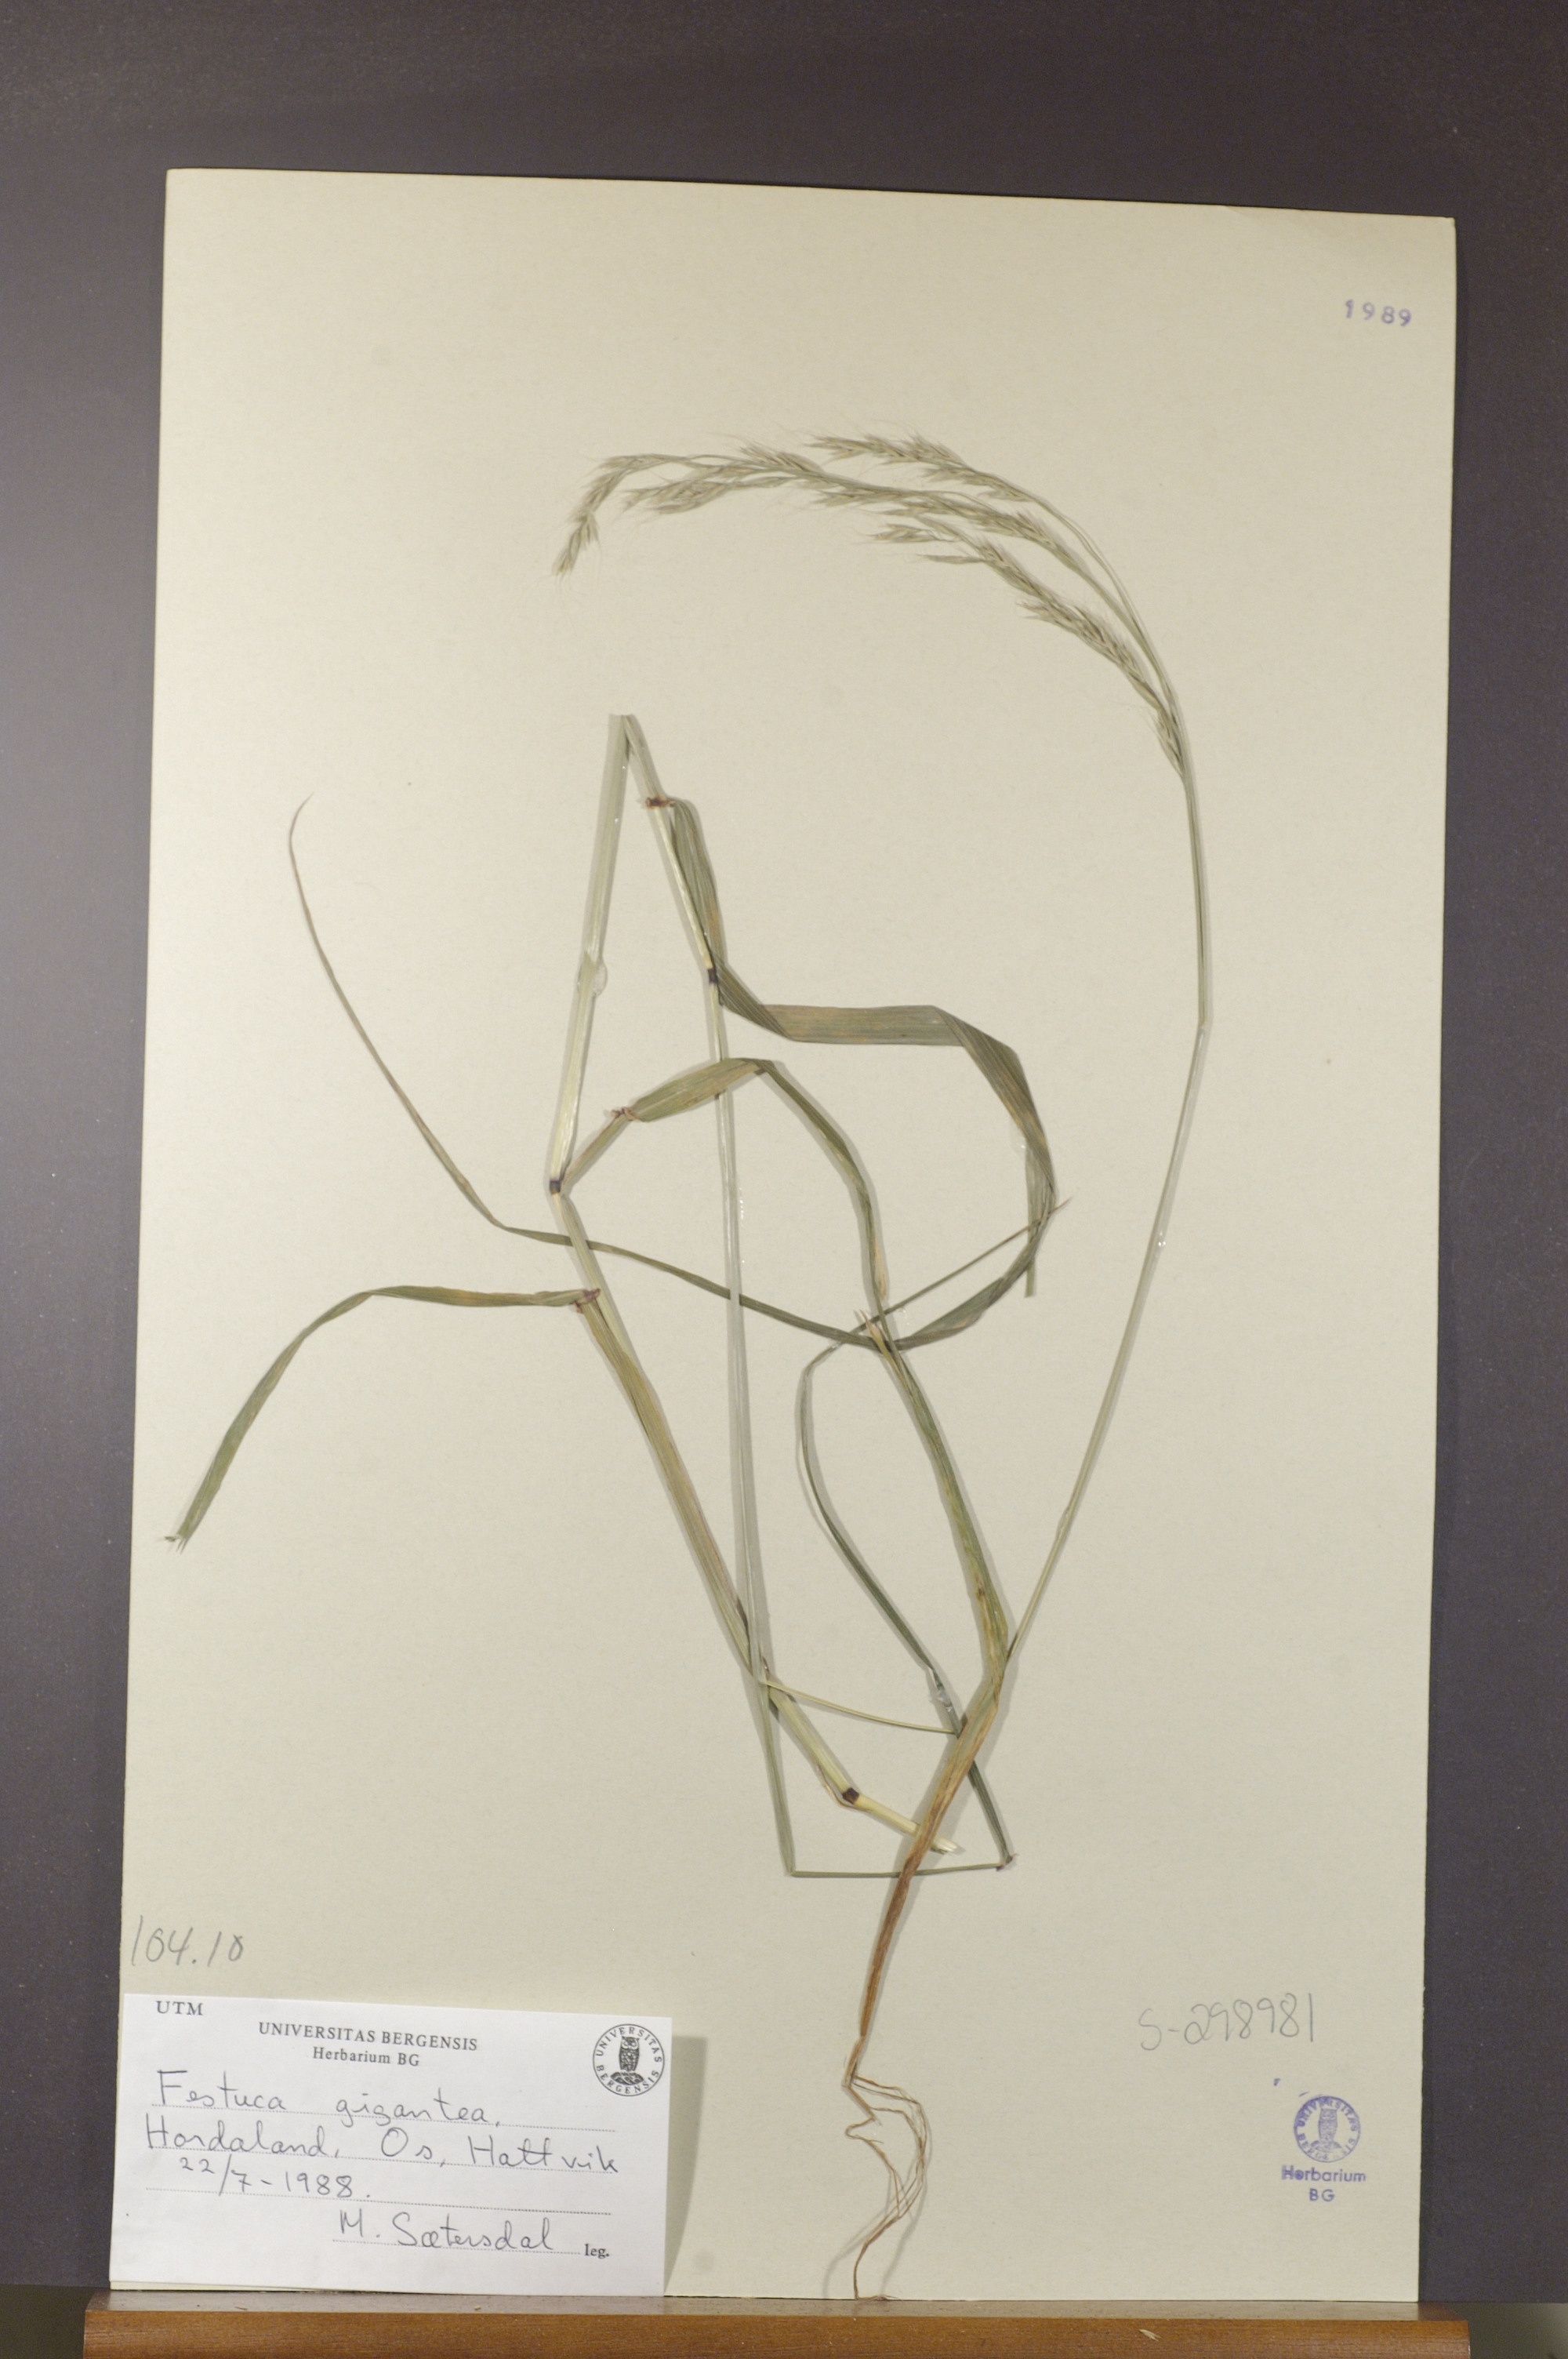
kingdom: Plantae
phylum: Tracheophyta
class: Liliopsida
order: Poales
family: Poaceae
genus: Lolium
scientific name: Lolium giganteum
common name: Giant fescue
